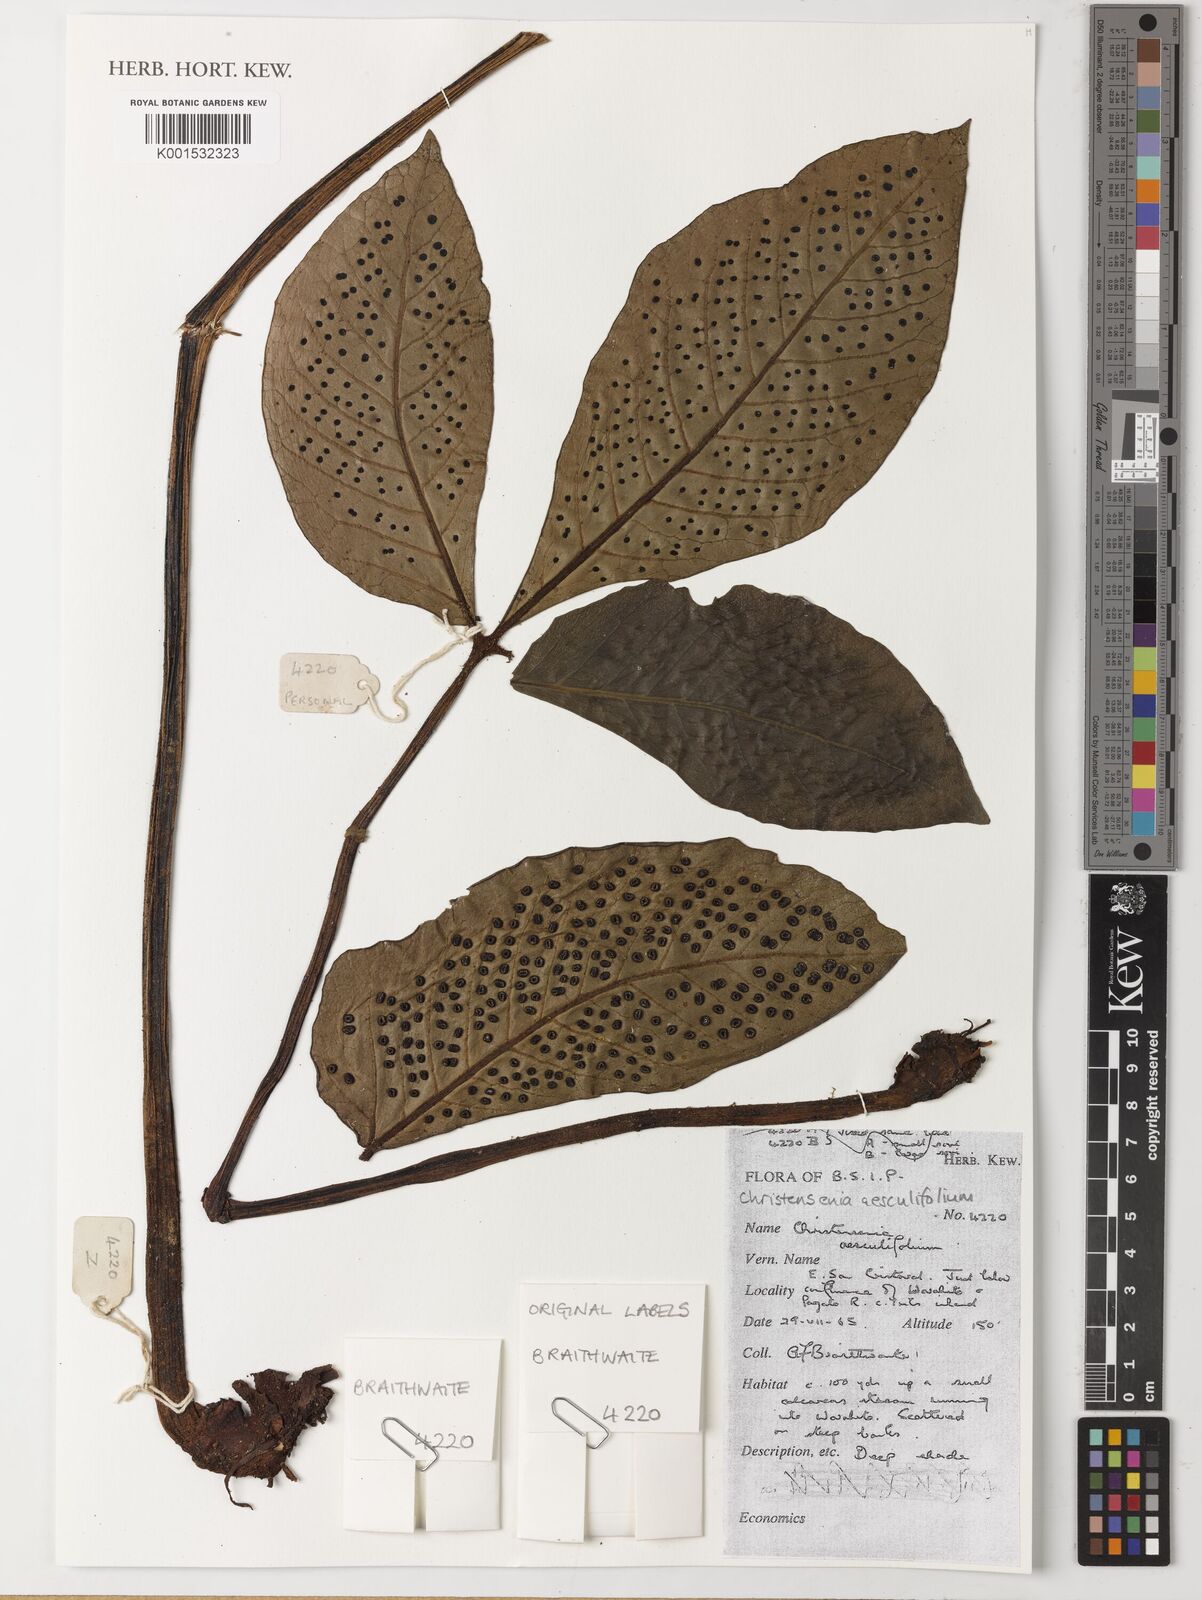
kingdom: Plantae
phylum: Tracheophyta
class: Polypodiopsida
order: Marattiales
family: Marattiaceae
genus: Christensenia
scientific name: Christensenia aesculifolia
